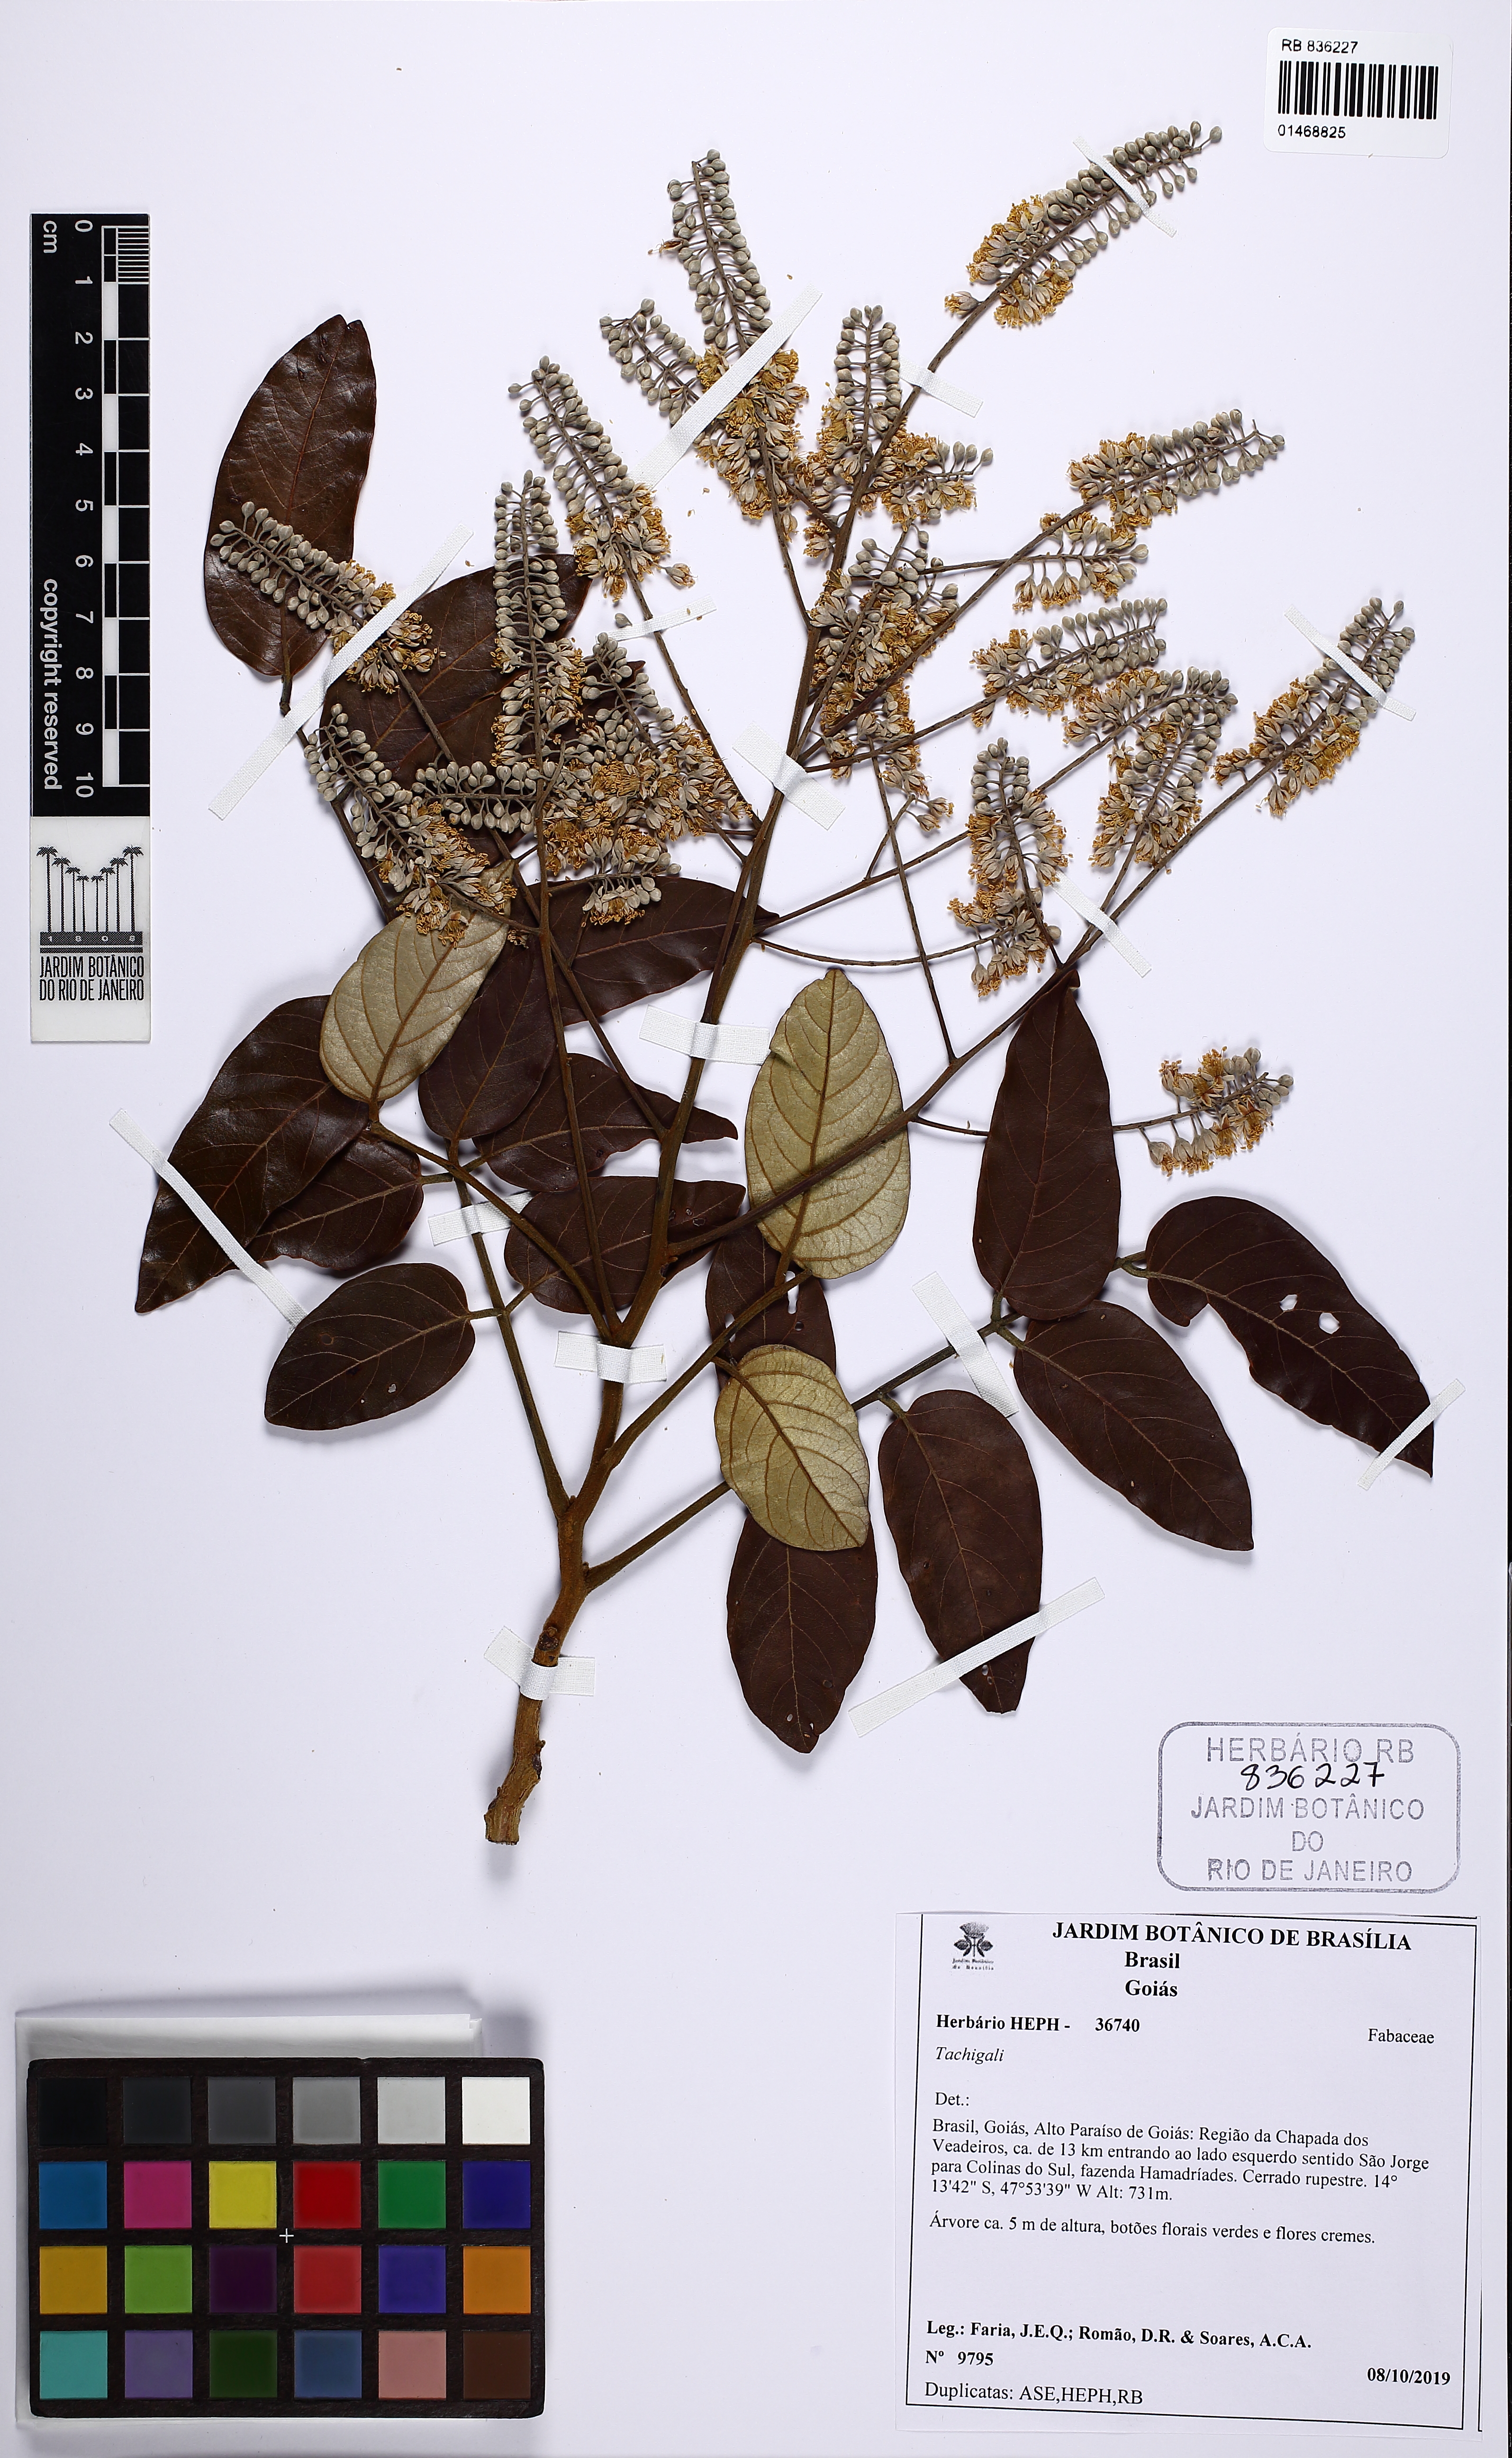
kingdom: Plantae
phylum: Tracheophyta
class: Magnoliopsida
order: Fabales
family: Fabaceae
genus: Tachigali
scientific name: Tachigali
